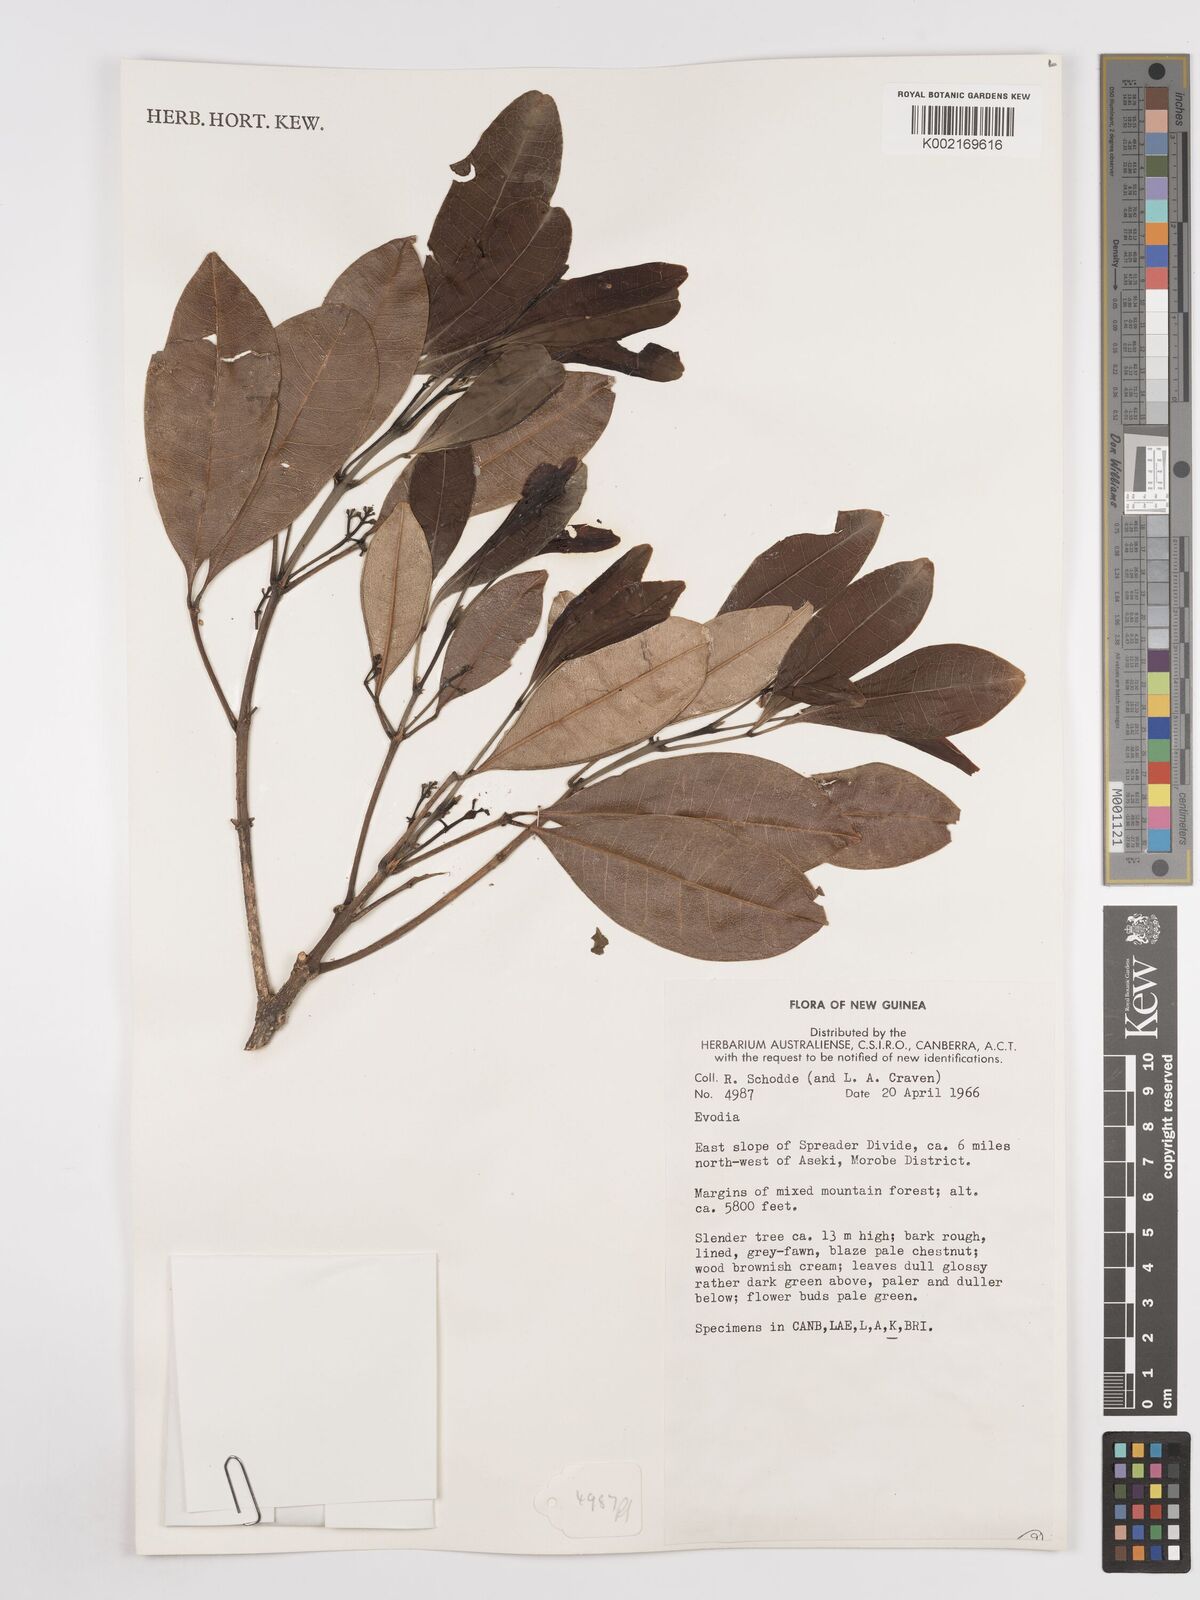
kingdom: Plantae
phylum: Tracheophyta
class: Magnoliopsida
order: Sapindales
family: Rutaceae
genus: Euodia
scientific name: Euodia
